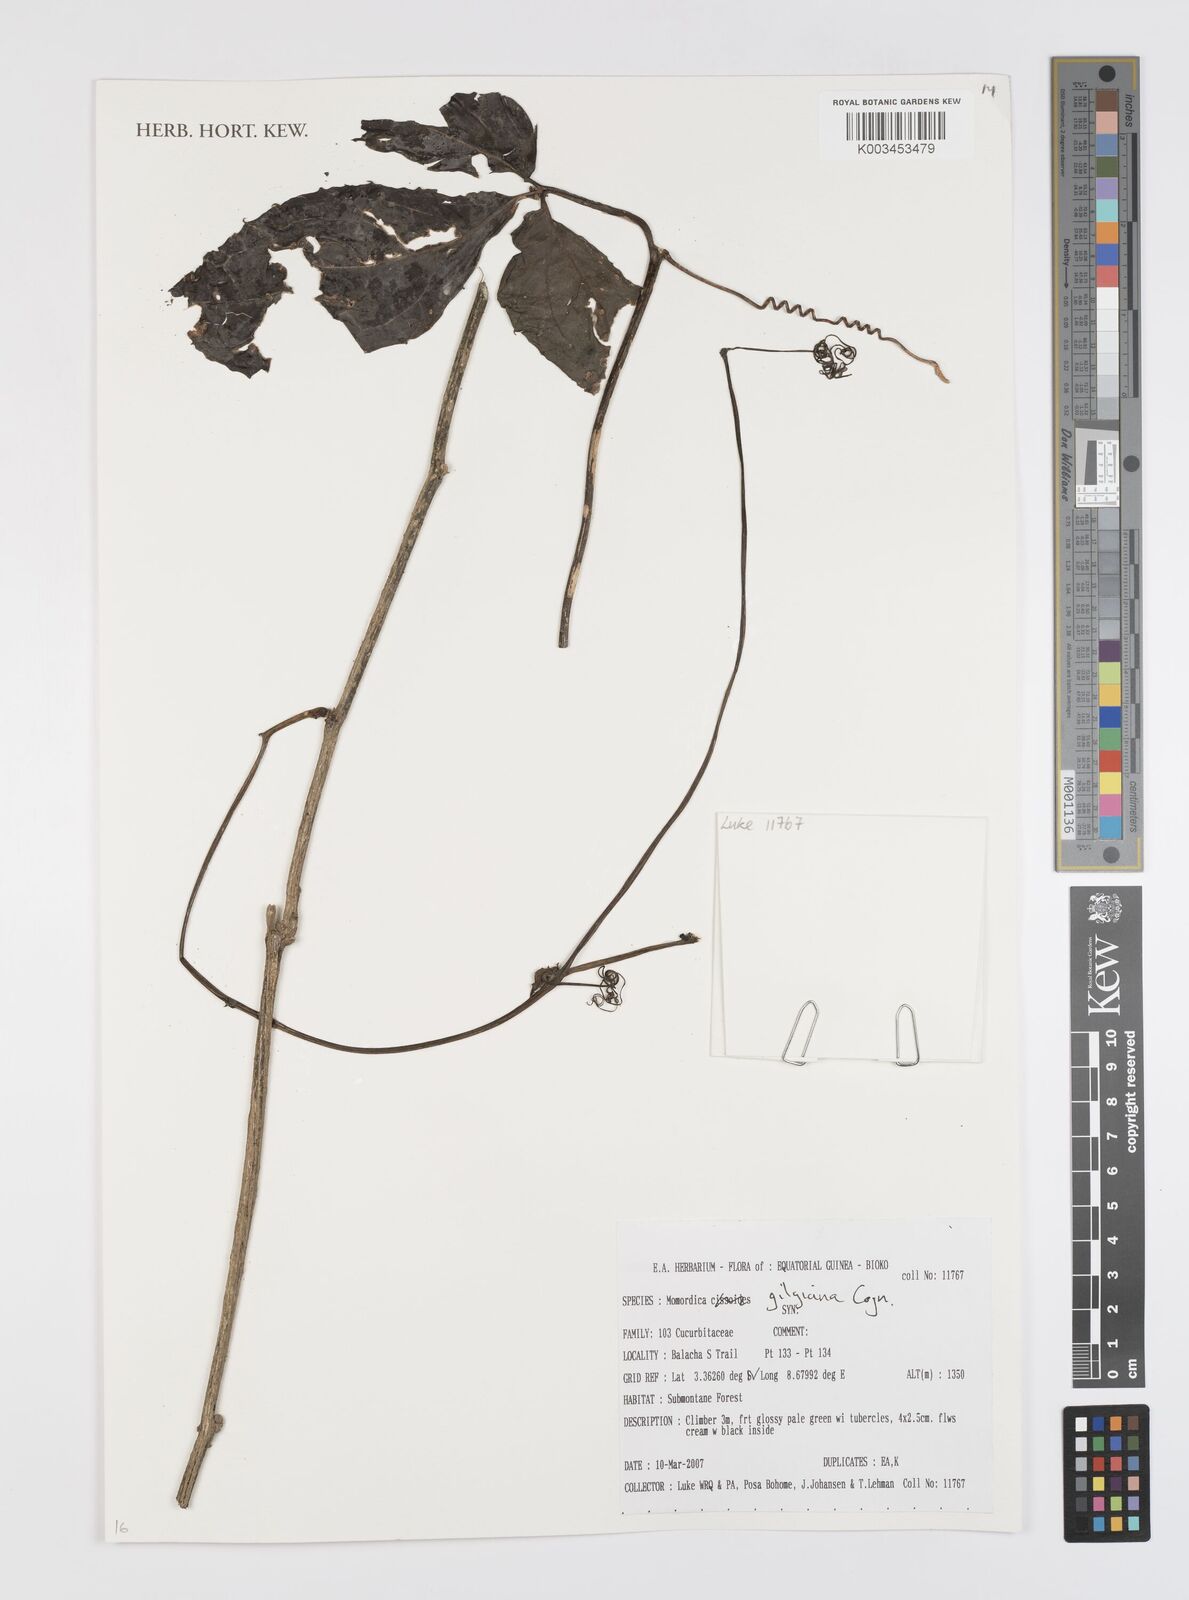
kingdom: Plantae
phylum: Tracheophyta
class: Magnoliopsida
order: Cucurbitales
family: Cucurbitaceae
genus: Momordica
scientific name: Momordica gilgiana
